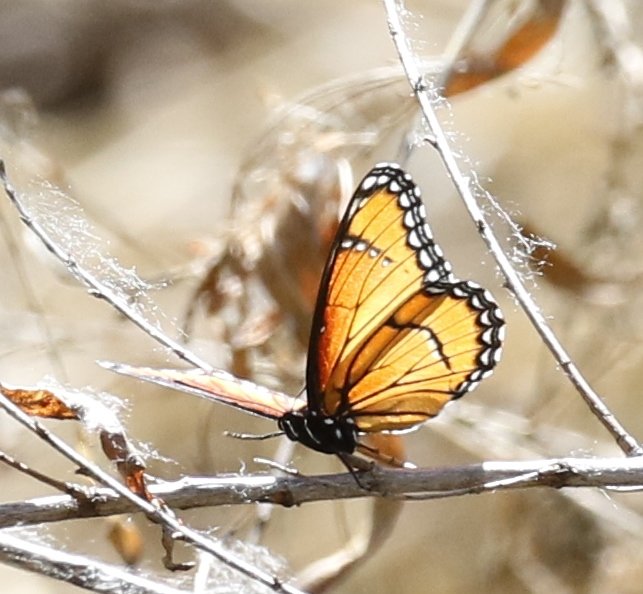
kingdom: Animalia
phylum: Arthropoda
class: Insecta
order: Lepidoptera
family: Nymphalidae
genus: Limenitis
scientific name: Limenitis archippus
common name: Viceroy
